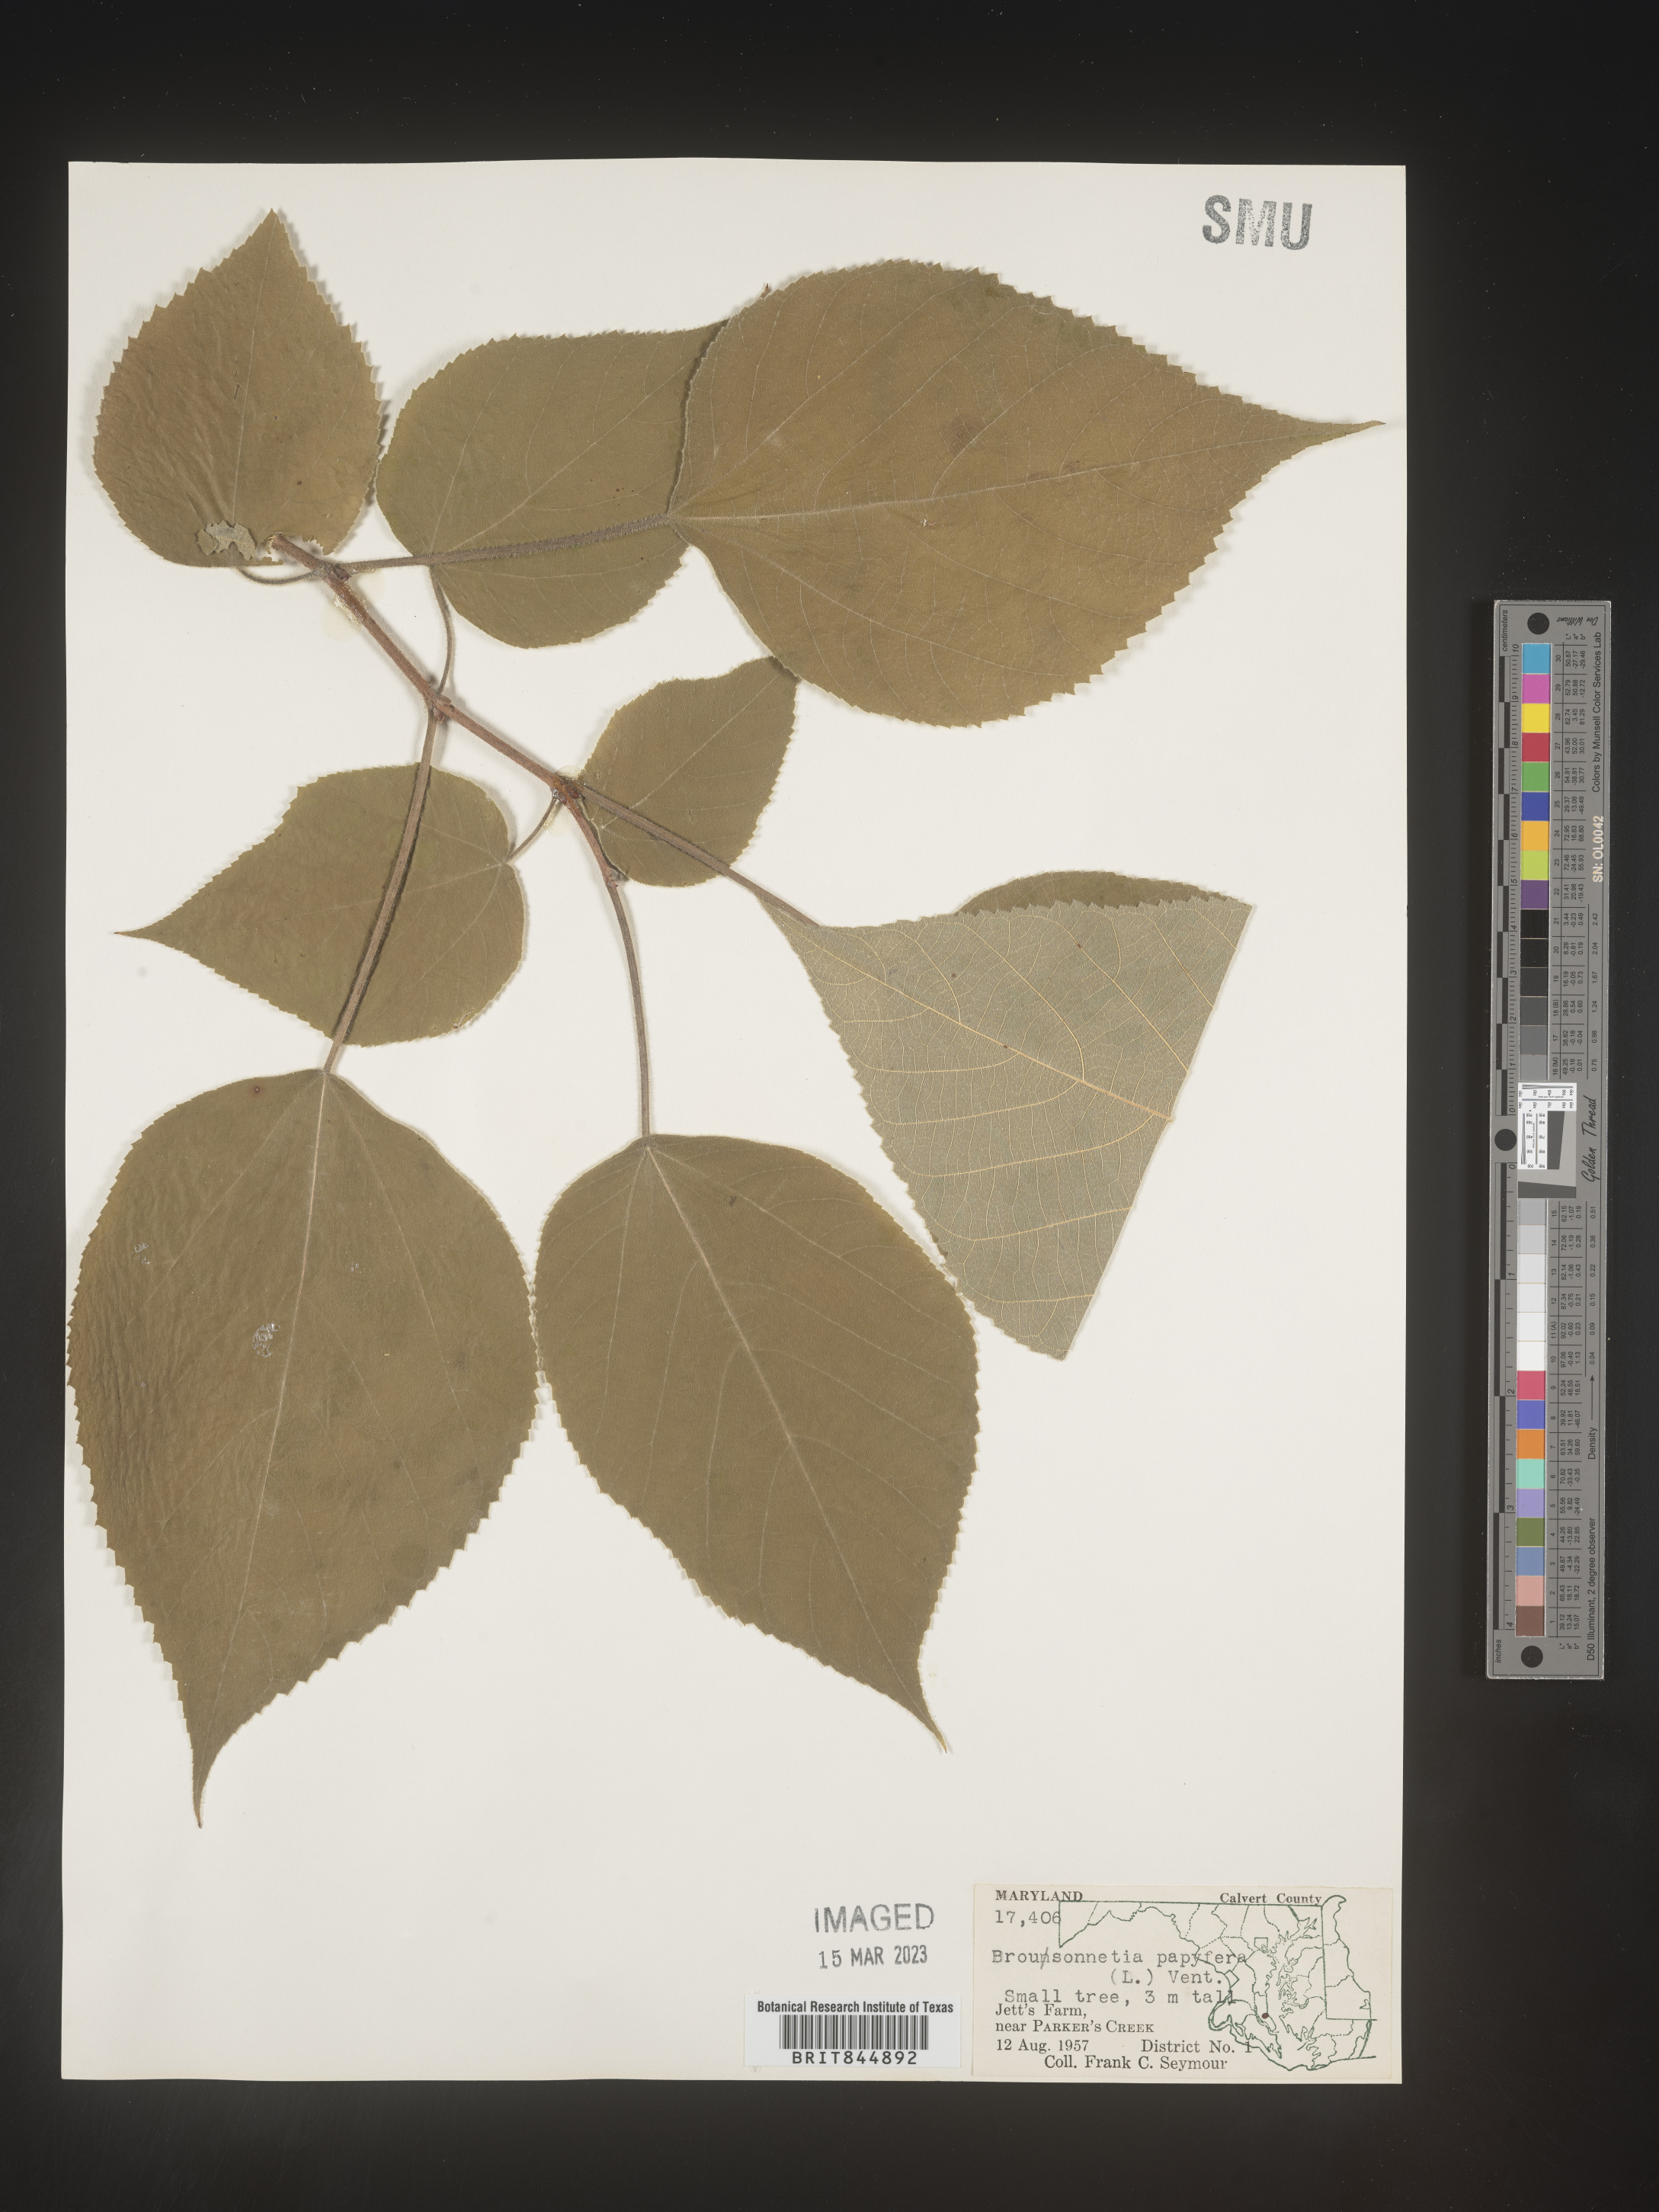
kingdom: Plantae
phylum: Tracheophyta
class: Magnoliopsida
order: Rosales
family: Moraceae
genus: Broussonetia
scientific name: Broussonetia
